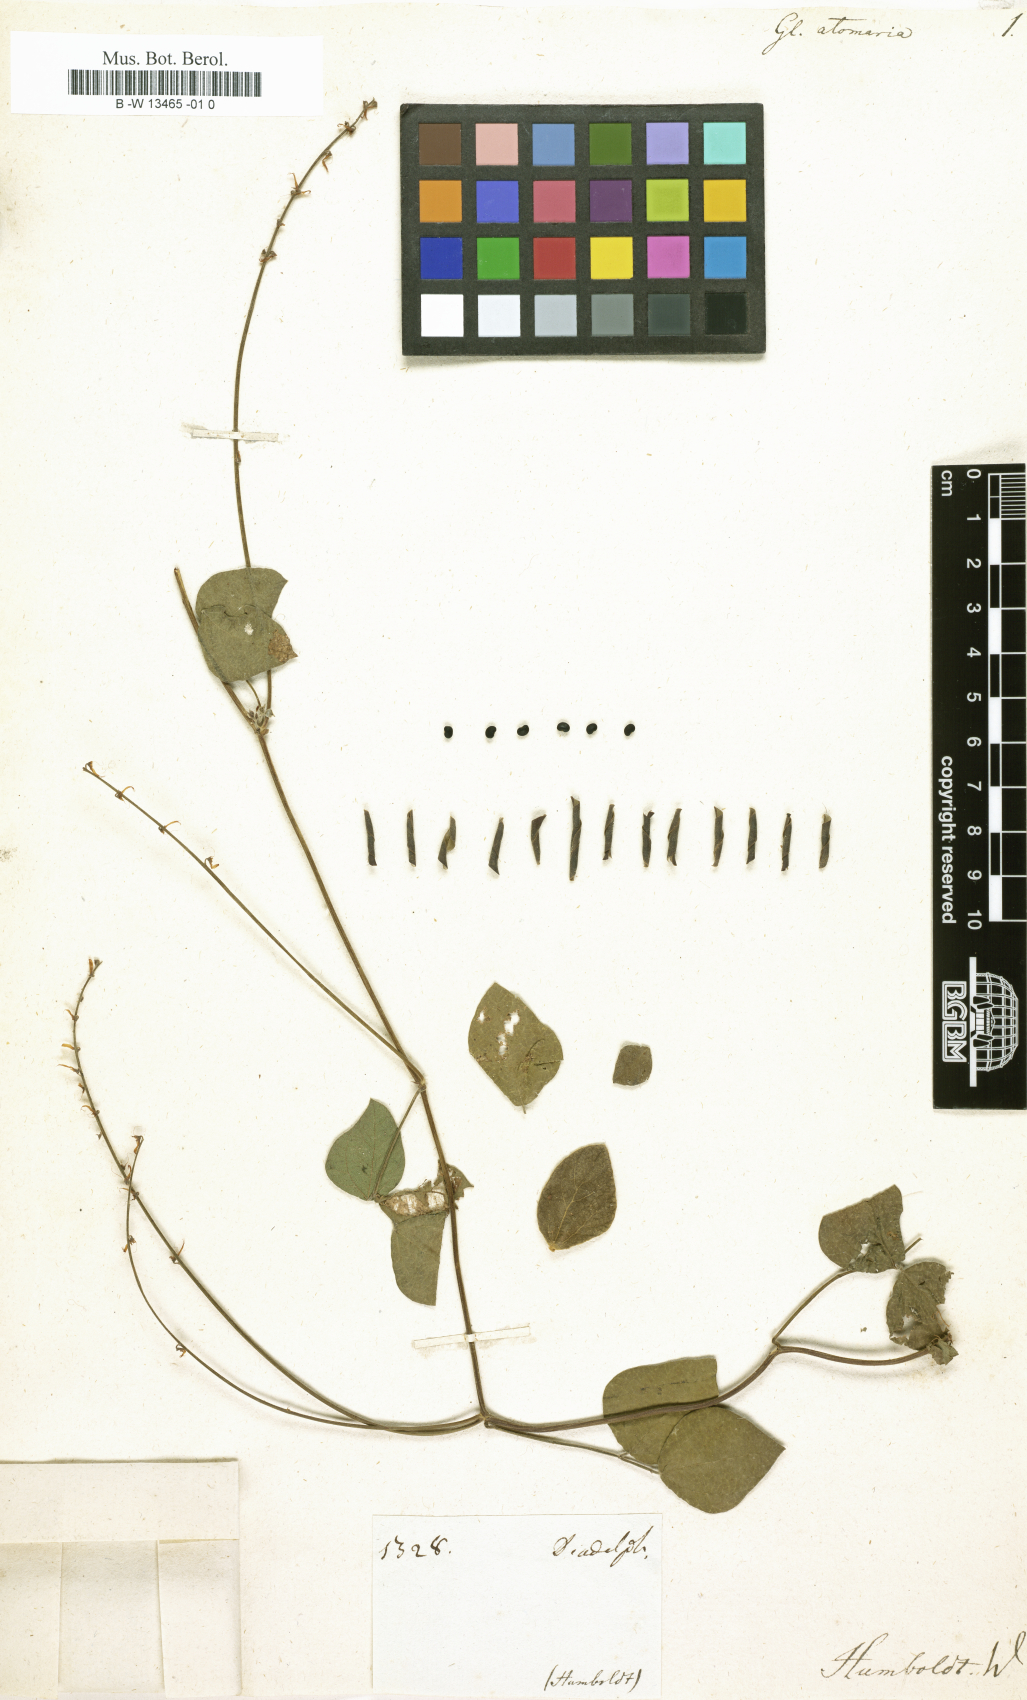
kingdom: Plantae
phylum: Tracheophyta
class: Magnoliopsida
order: Fabales
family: Fabaceae
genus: Glycine
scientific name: Glycine atomaria
